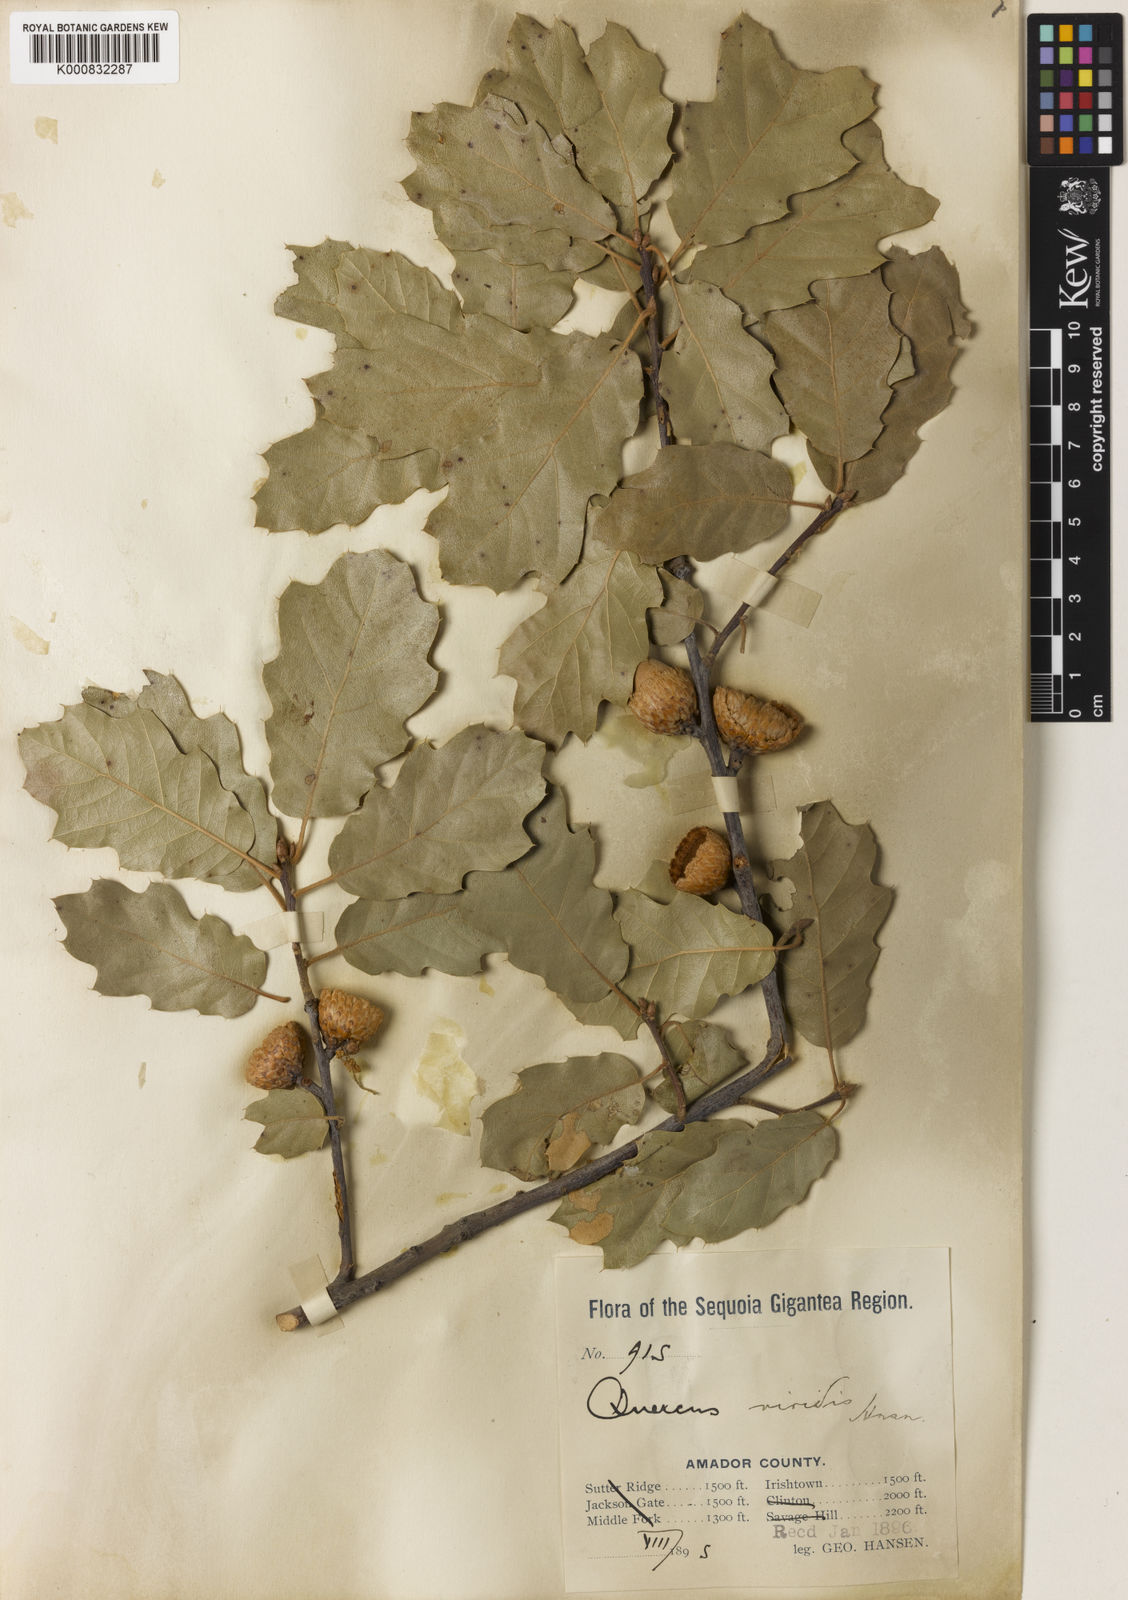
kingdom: Plantae
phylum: Tracheophyta
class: Magnoliopsida
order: Fagales
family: Fagaceae
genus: Quercus
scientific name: Quercus morehus
